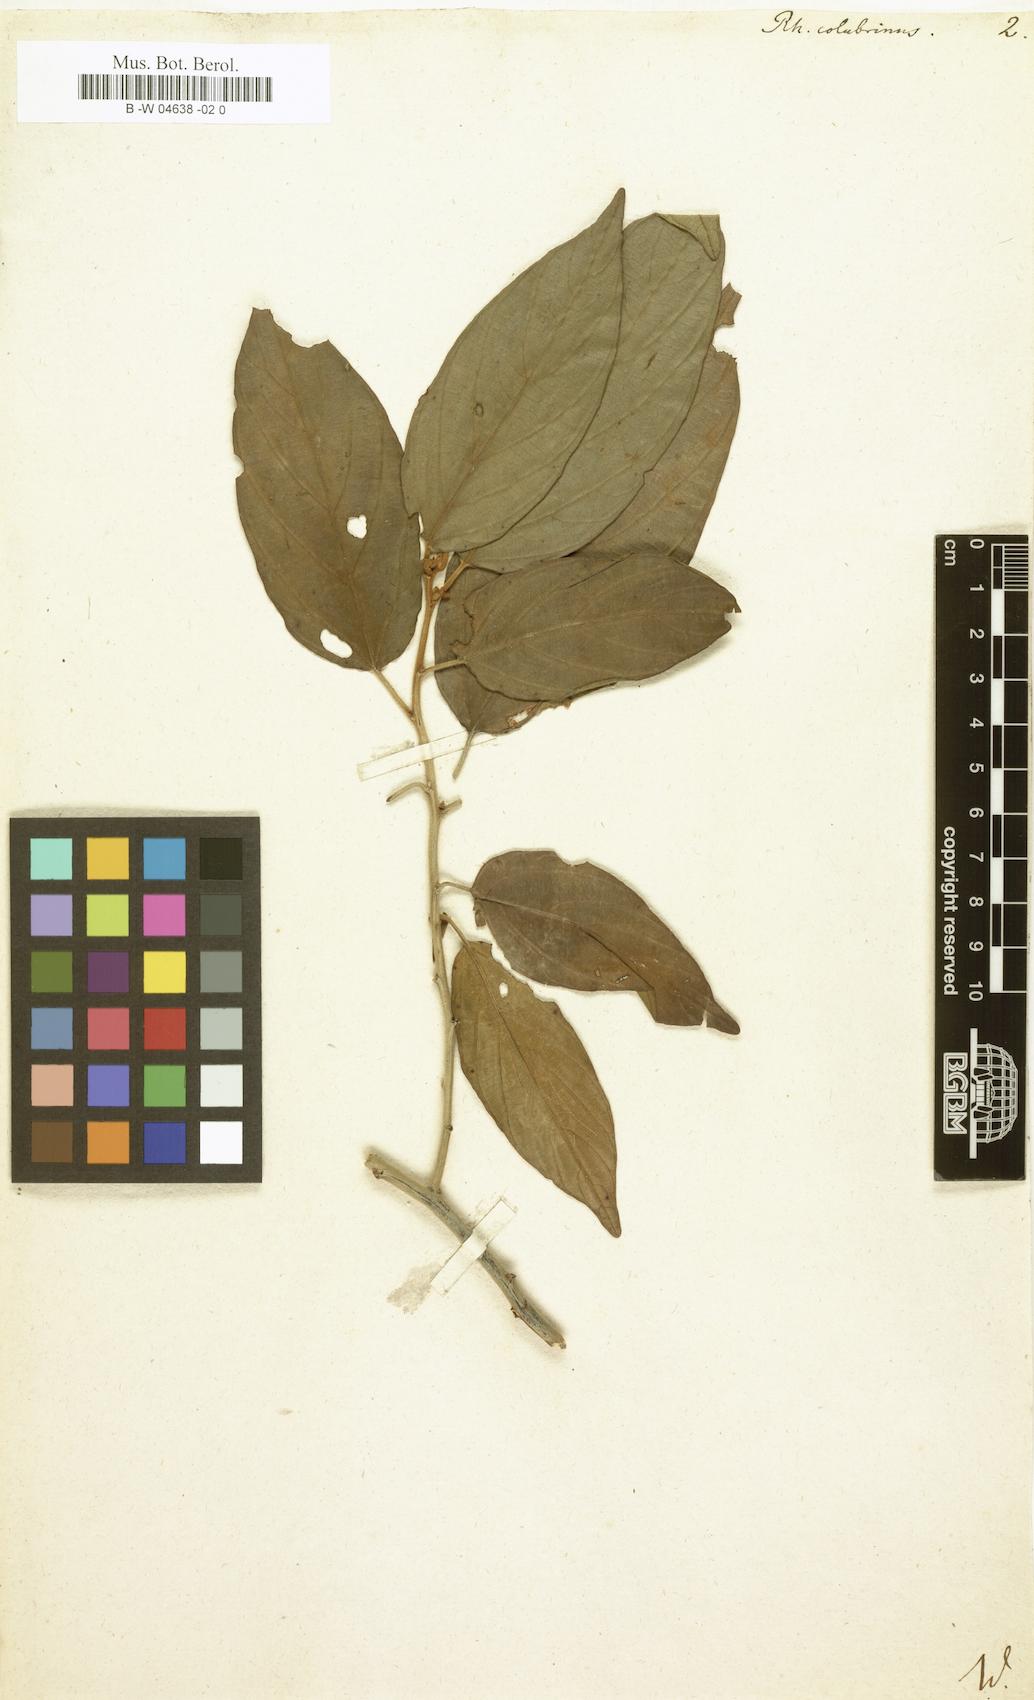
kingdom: Plantae
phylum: Tracheophyta
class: Magnoliopsida
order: Rosales
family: Rhamnaceae
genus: Colubrina
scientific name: Colubrina arborescens
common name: Wild coffee
